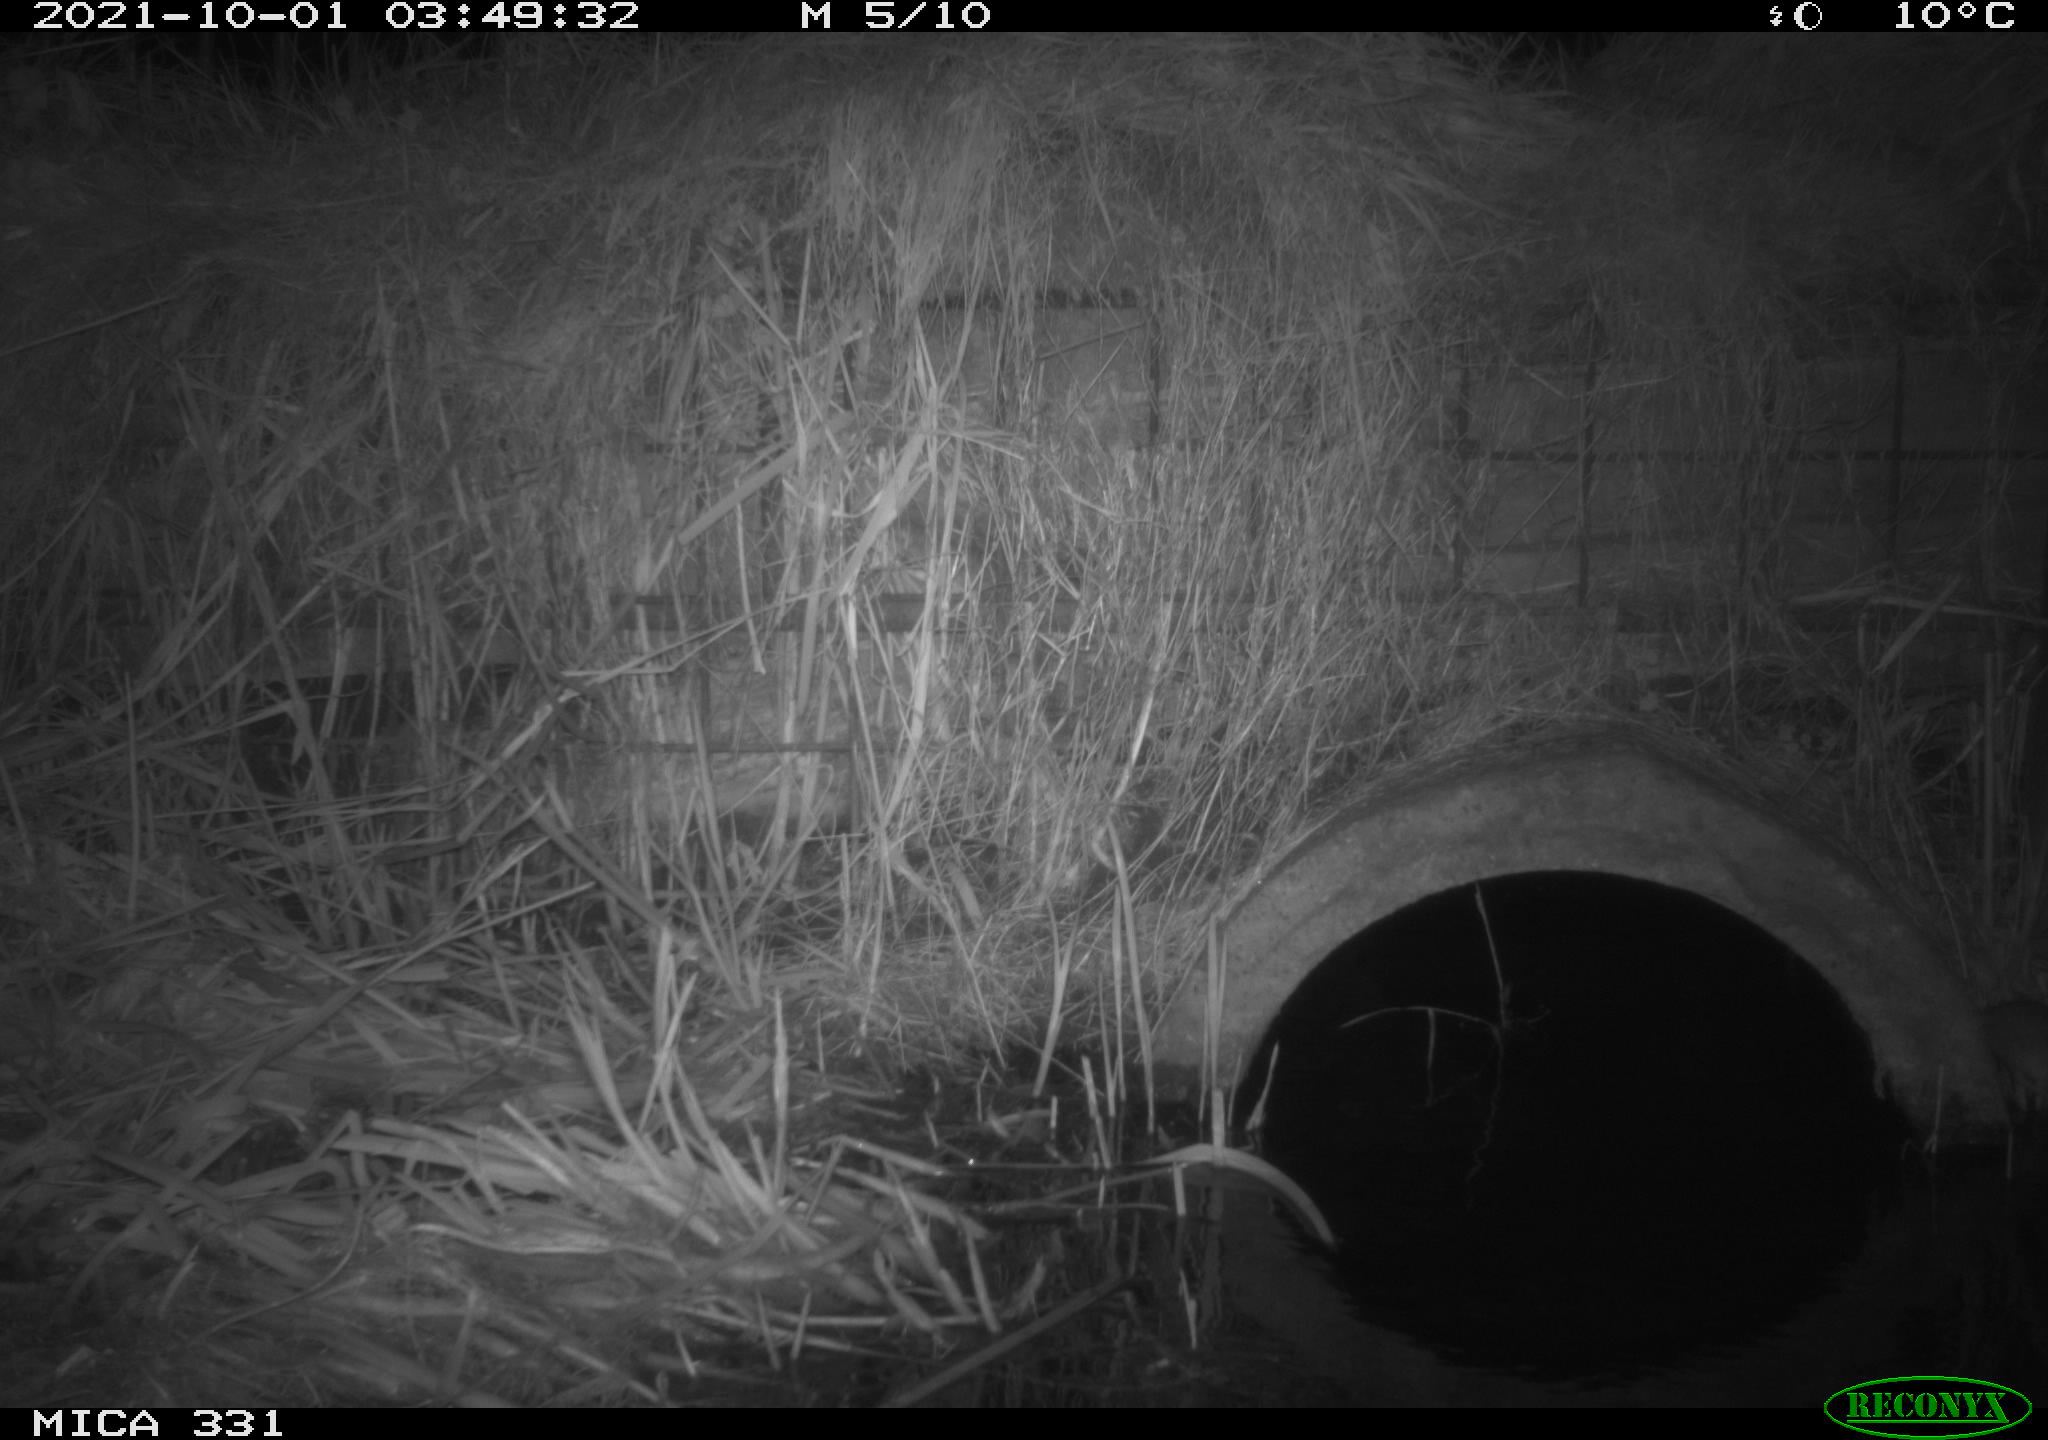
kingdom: Animalia
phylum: Chordata
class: Mammalia
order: Rodentia
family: Muridae
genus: Rattus
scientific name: Rattus norvegicus
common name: Brown rat
